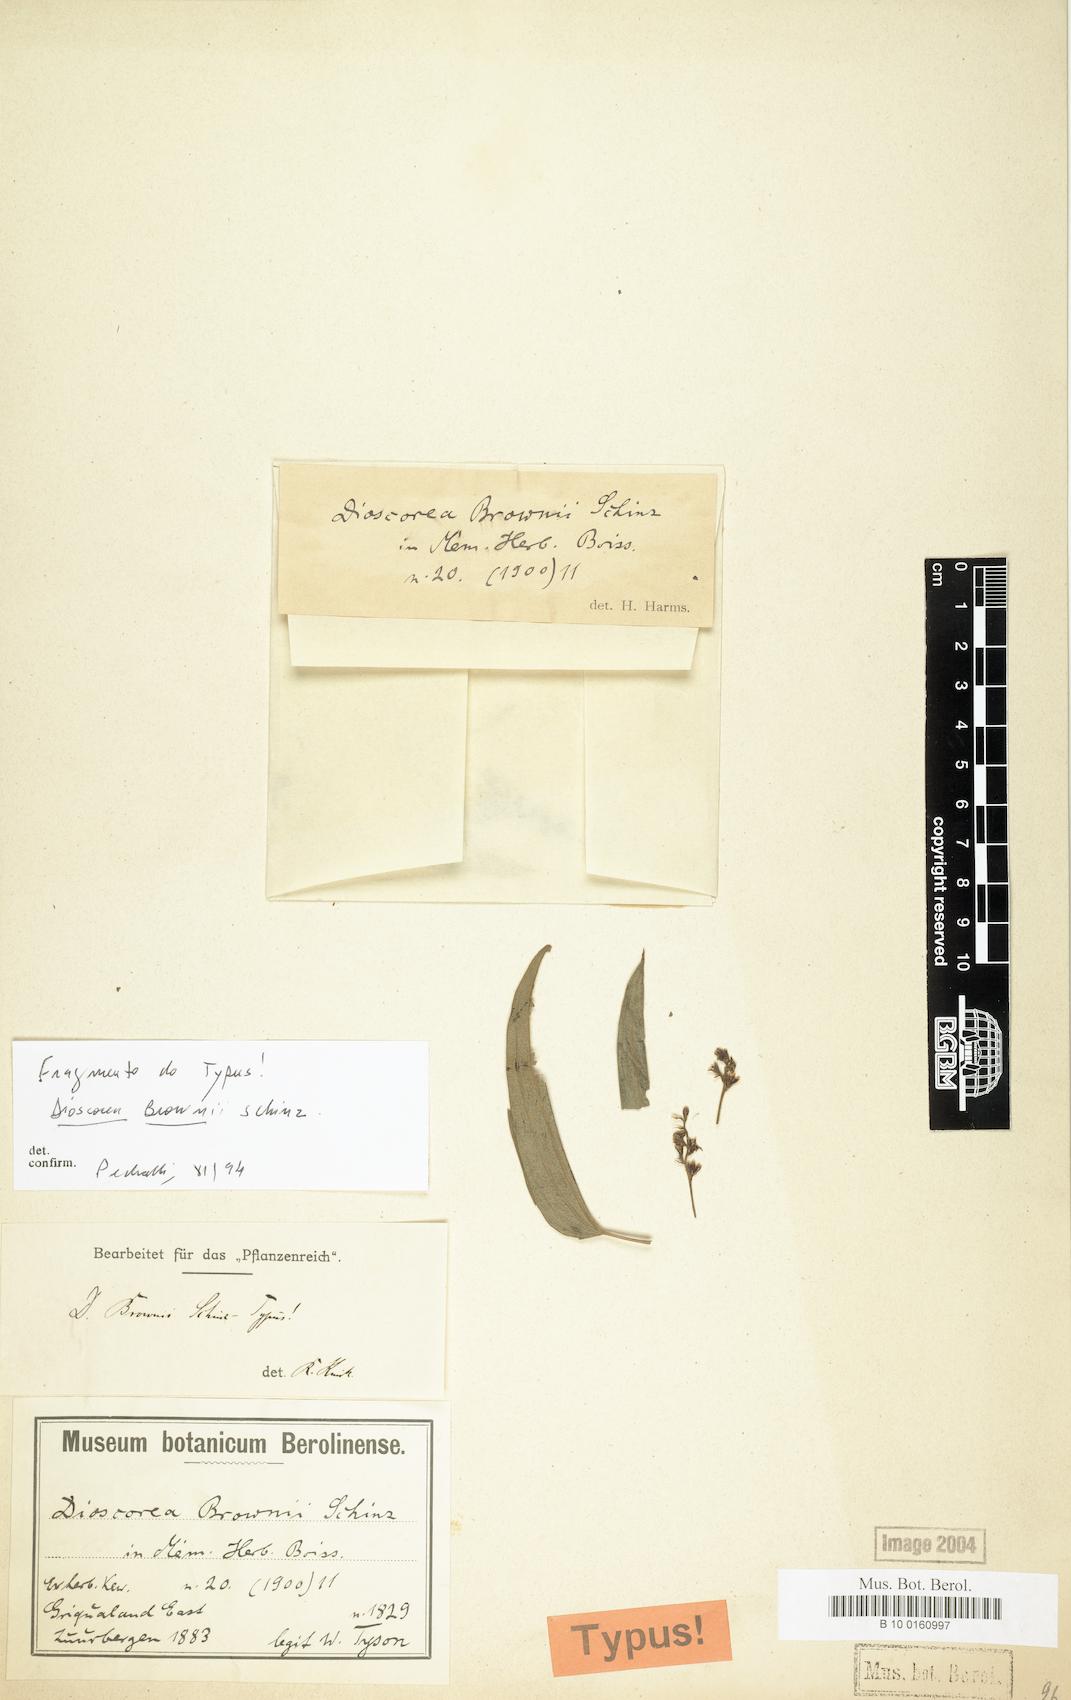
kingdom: Plantae
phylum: Tracheophyta
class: Liliopsida
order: Dioscoreales
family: Dioscoreaceae
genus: Dioscorea
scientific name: Dioscorea brownii
